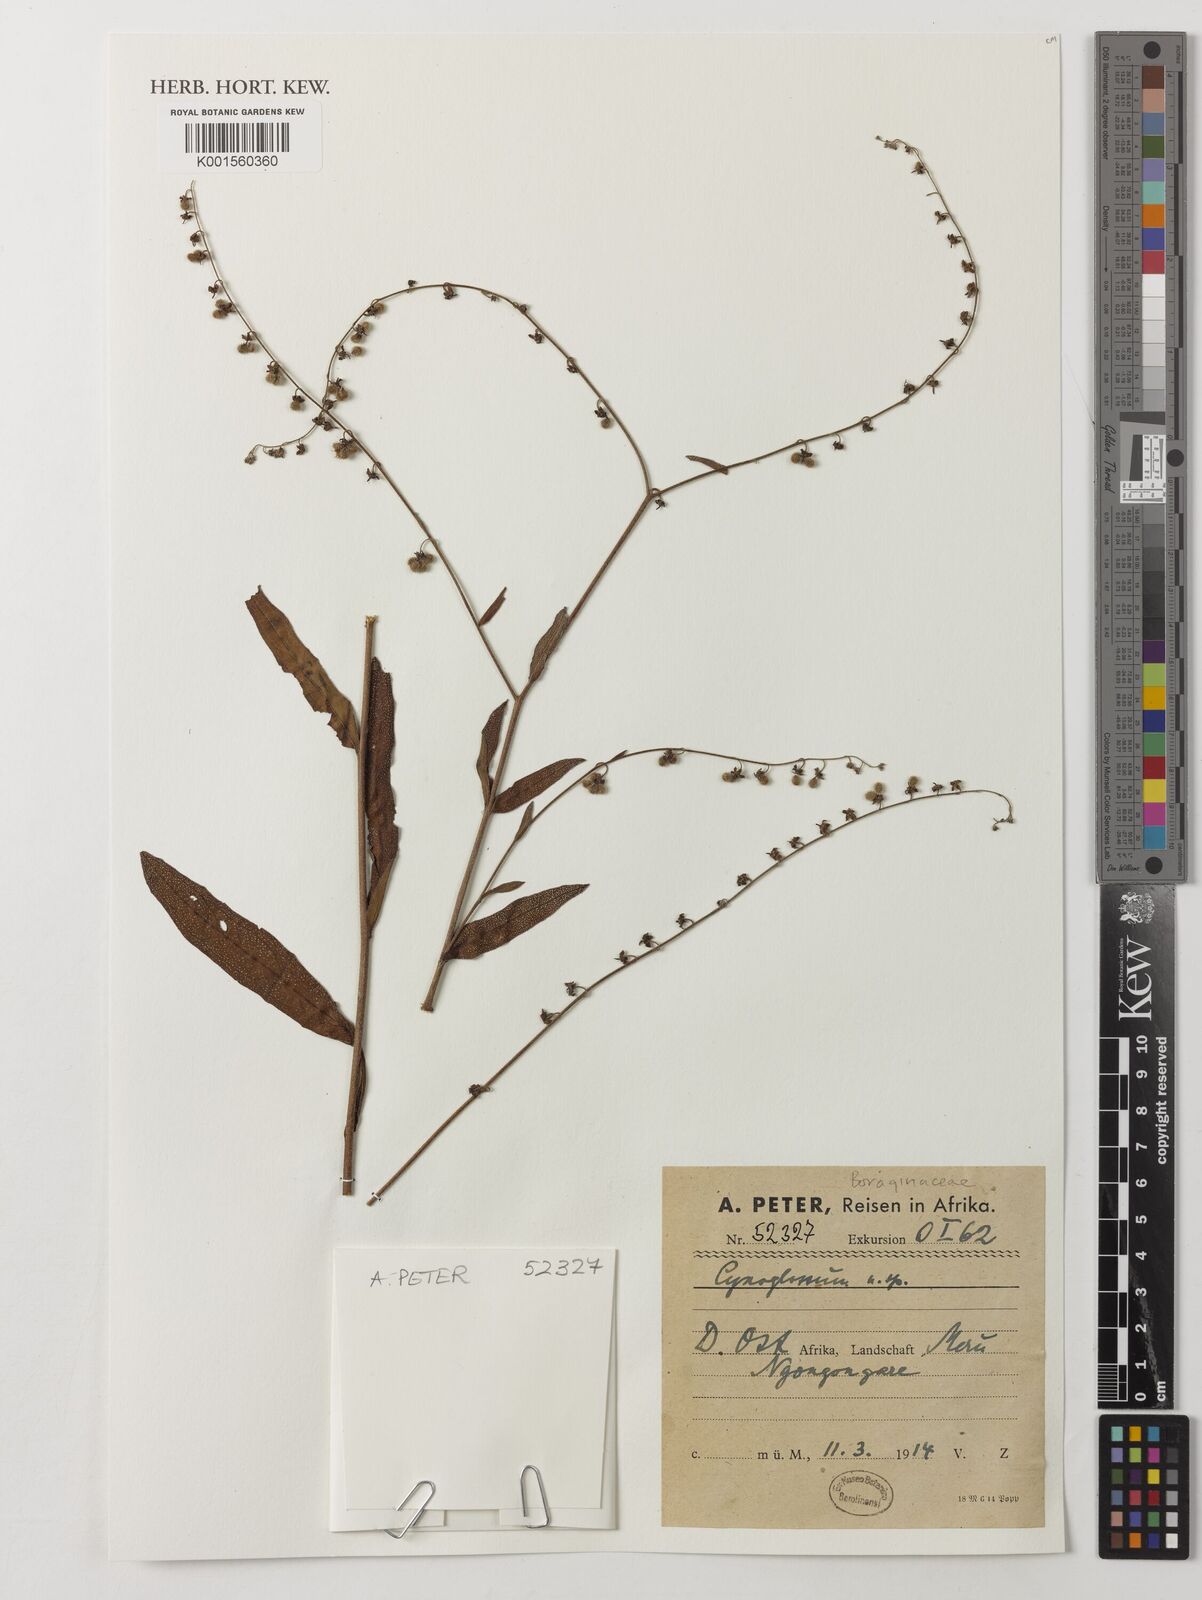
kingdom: Plantae
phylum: Tracheophyta
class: Magnoliopsida
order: Boraginales
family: Boraginaceae
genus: Cynoglossum
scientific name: Cynoglossum
